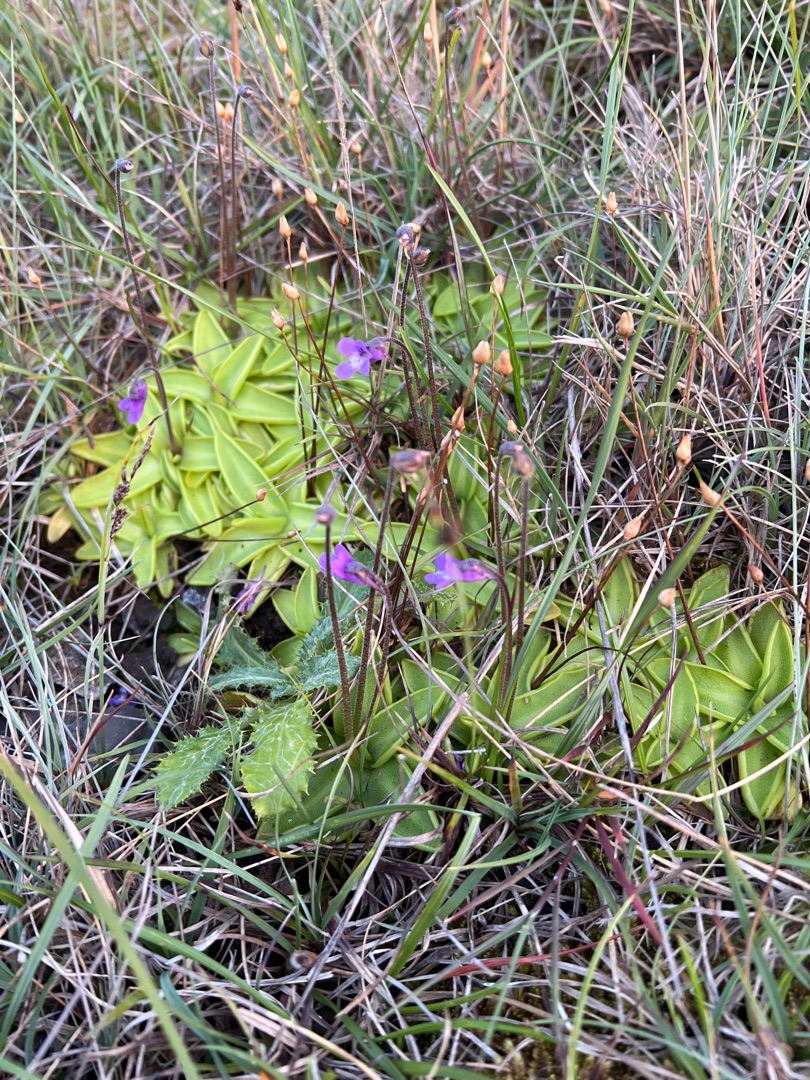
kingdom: Plantae
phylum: Tracheophyta
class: Magnoliopsida
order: Lamiales
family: Lentibulariaceae
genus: Pinguicula
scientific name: Pinguicula vulgaris
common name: Vibefedt
